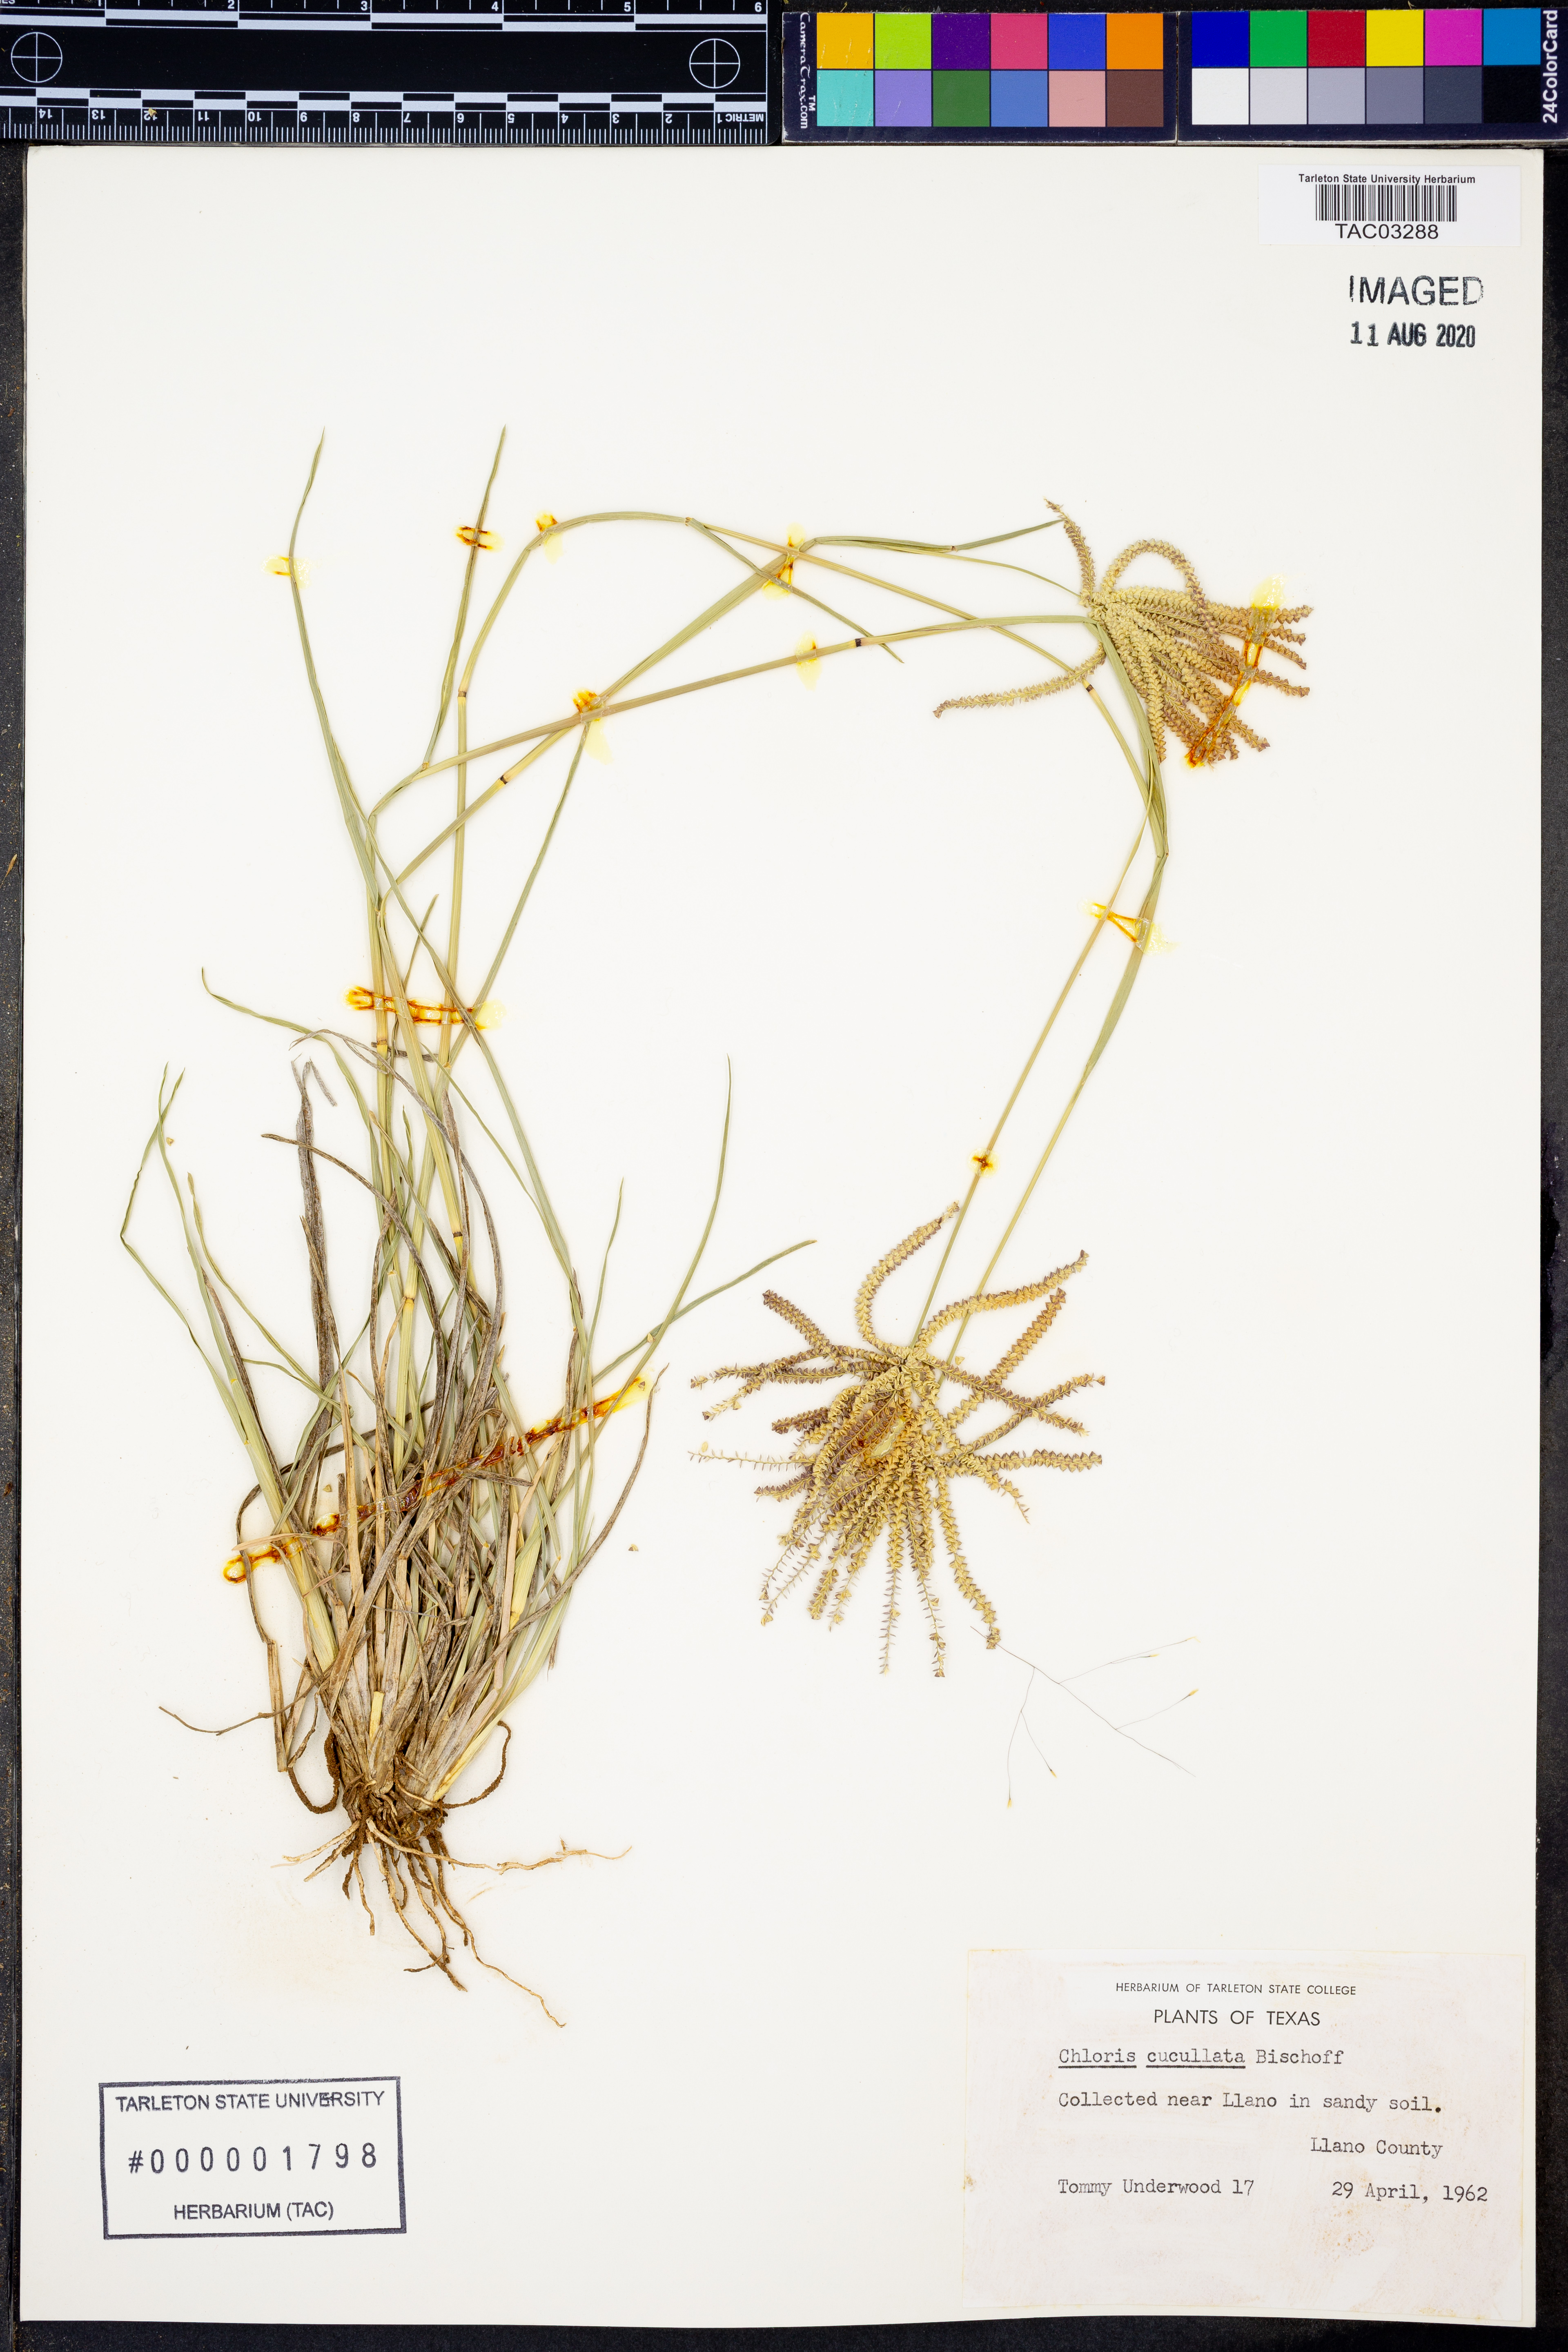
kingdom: Plantae
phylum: Tracheophyta
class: Liliopsida
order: Poales
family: Poaceae
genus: Chloris
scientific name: Chloris cucullata
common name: Hooded windmill grass
